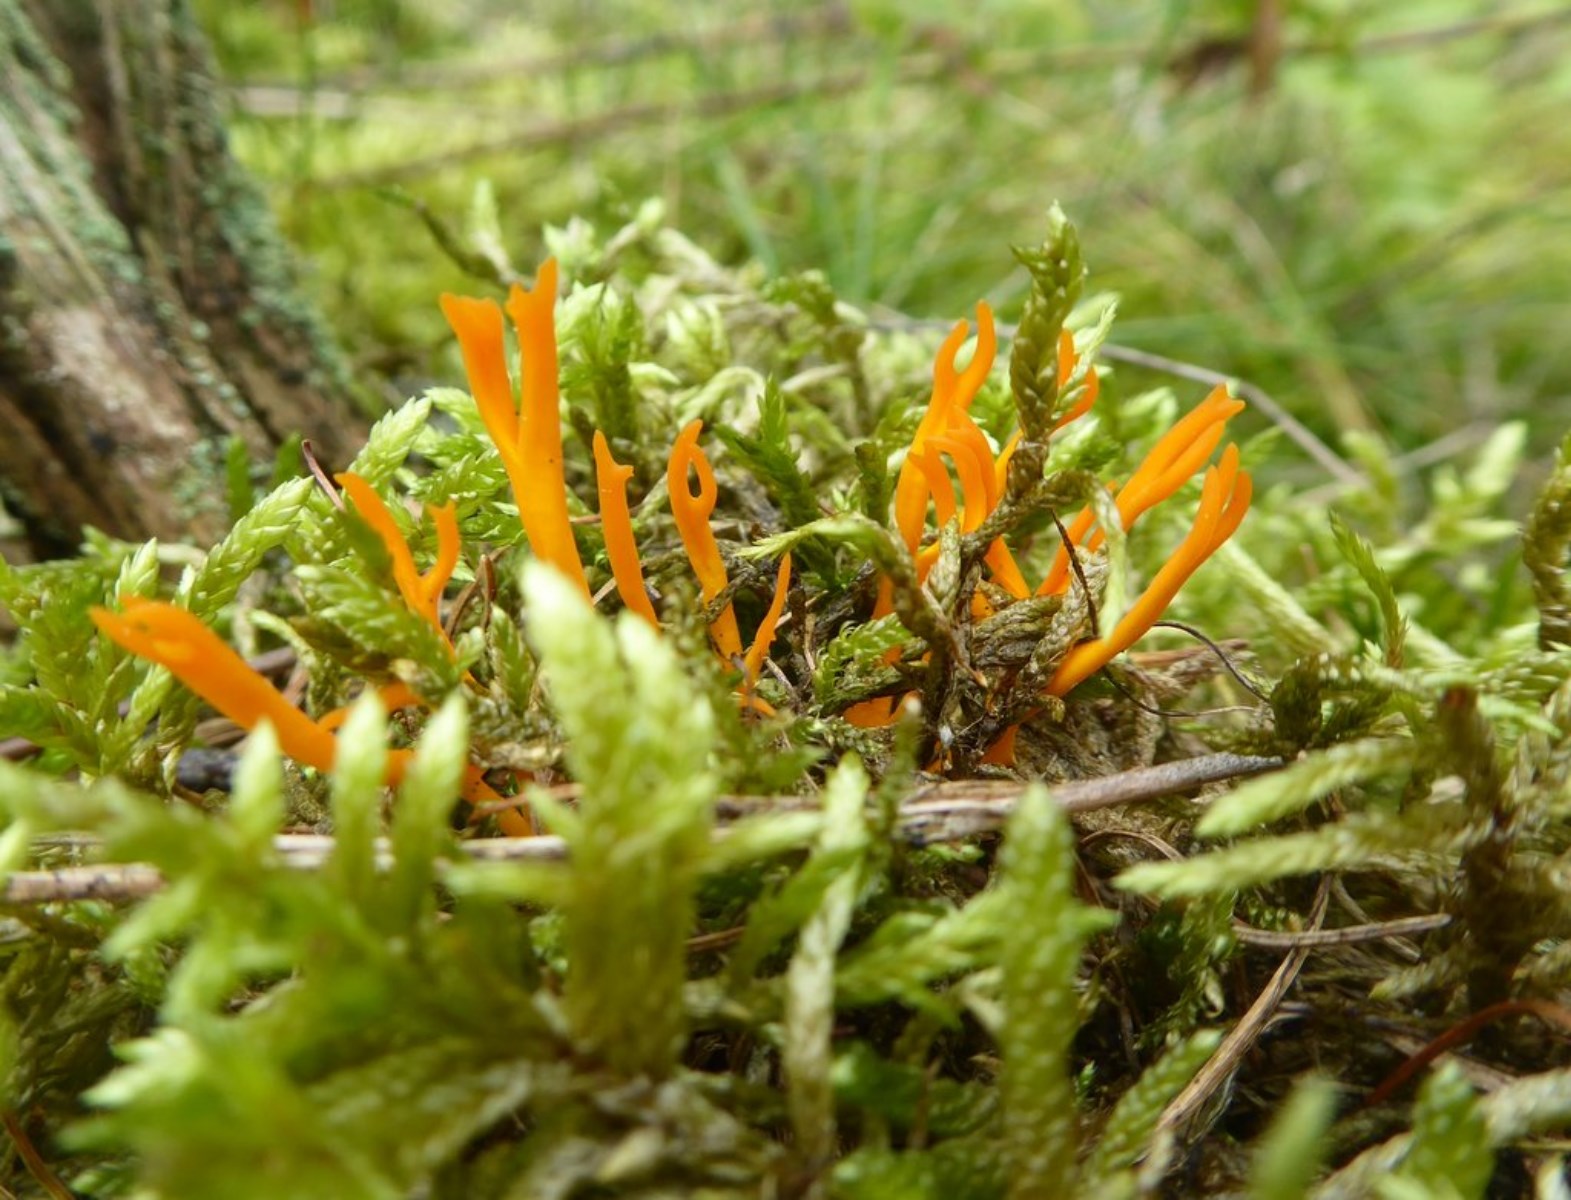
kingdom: Fungi
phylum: Basidiomycota
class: Dacrymycetes
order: Dacrymycetales
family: Dacrymycetaceae
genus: Calocera
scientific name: Calocera viscosa
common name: almindelig guldgaffel
